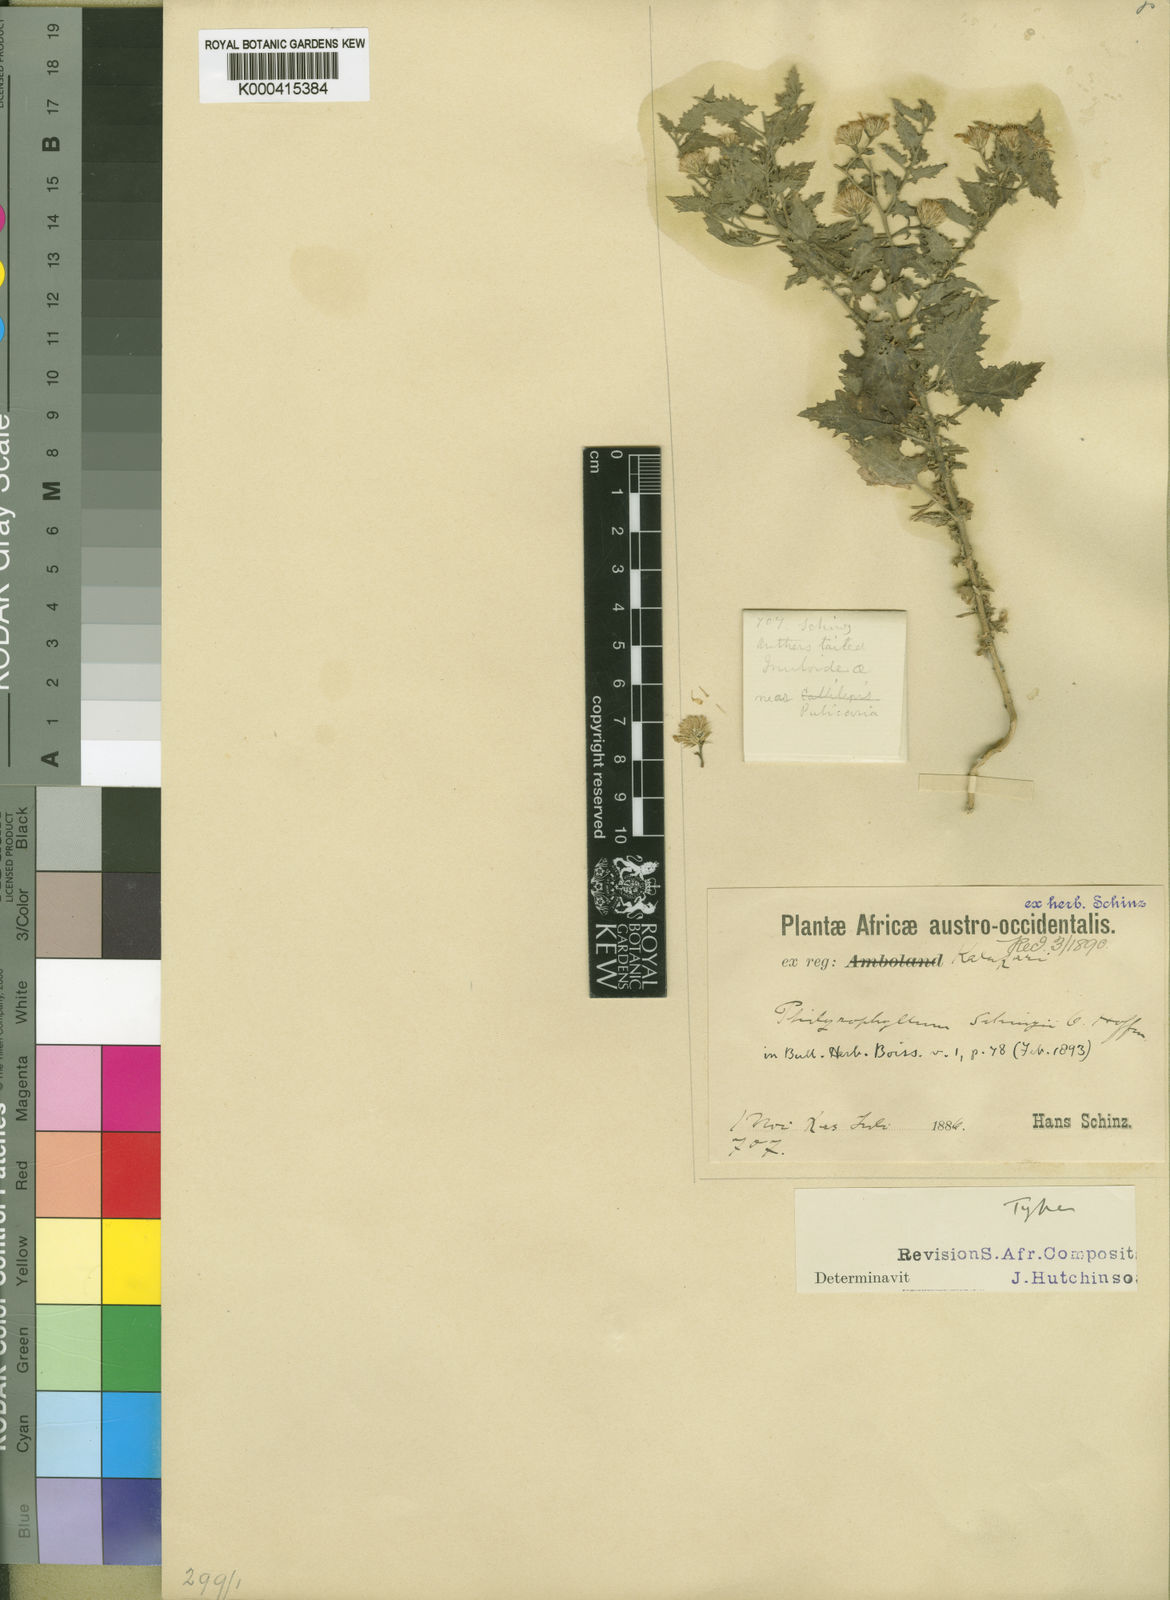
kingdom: Plantae
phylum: Tracheophyta
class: Magnoliopsida
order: Asterales
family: Asteraceae
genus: Anisopappus
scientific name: Anisopappus schinzii
